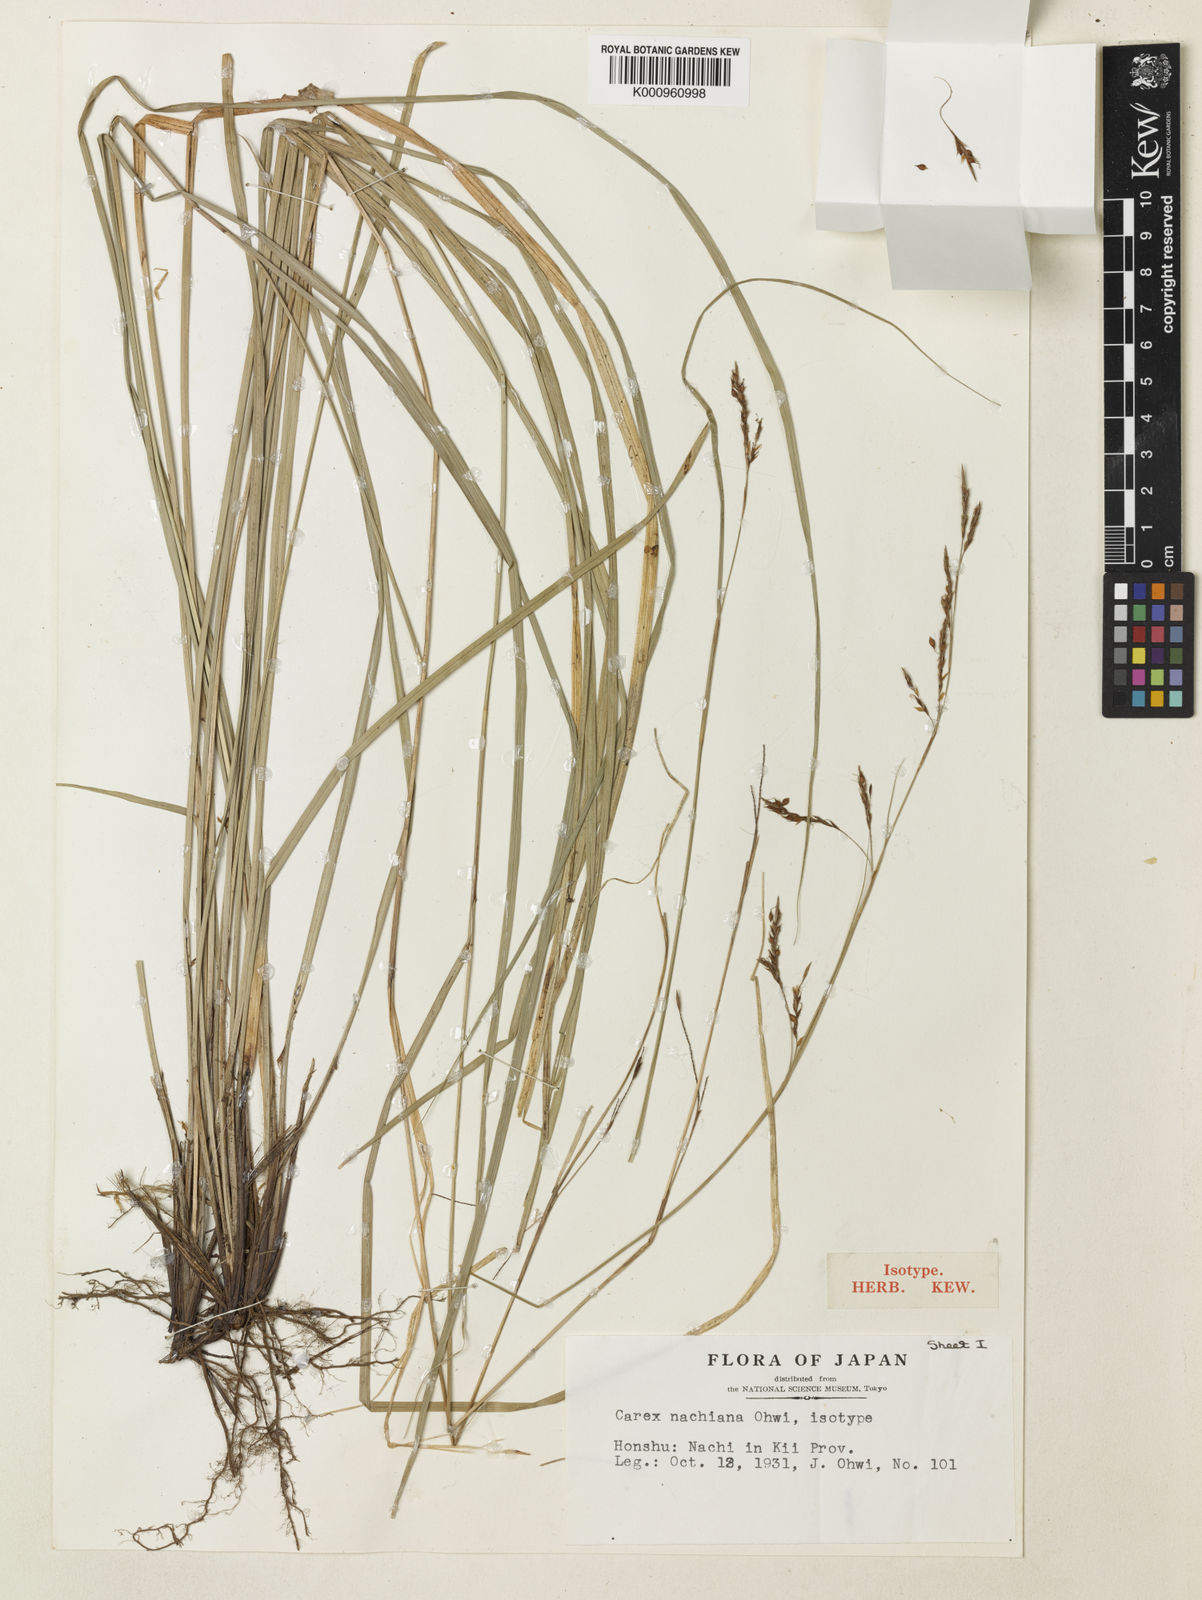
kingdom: Plantae
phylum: Tracheophyta
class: Liliopsida
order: Poales
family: Cyperaceae
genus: Carex
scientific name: Carex nachiana
